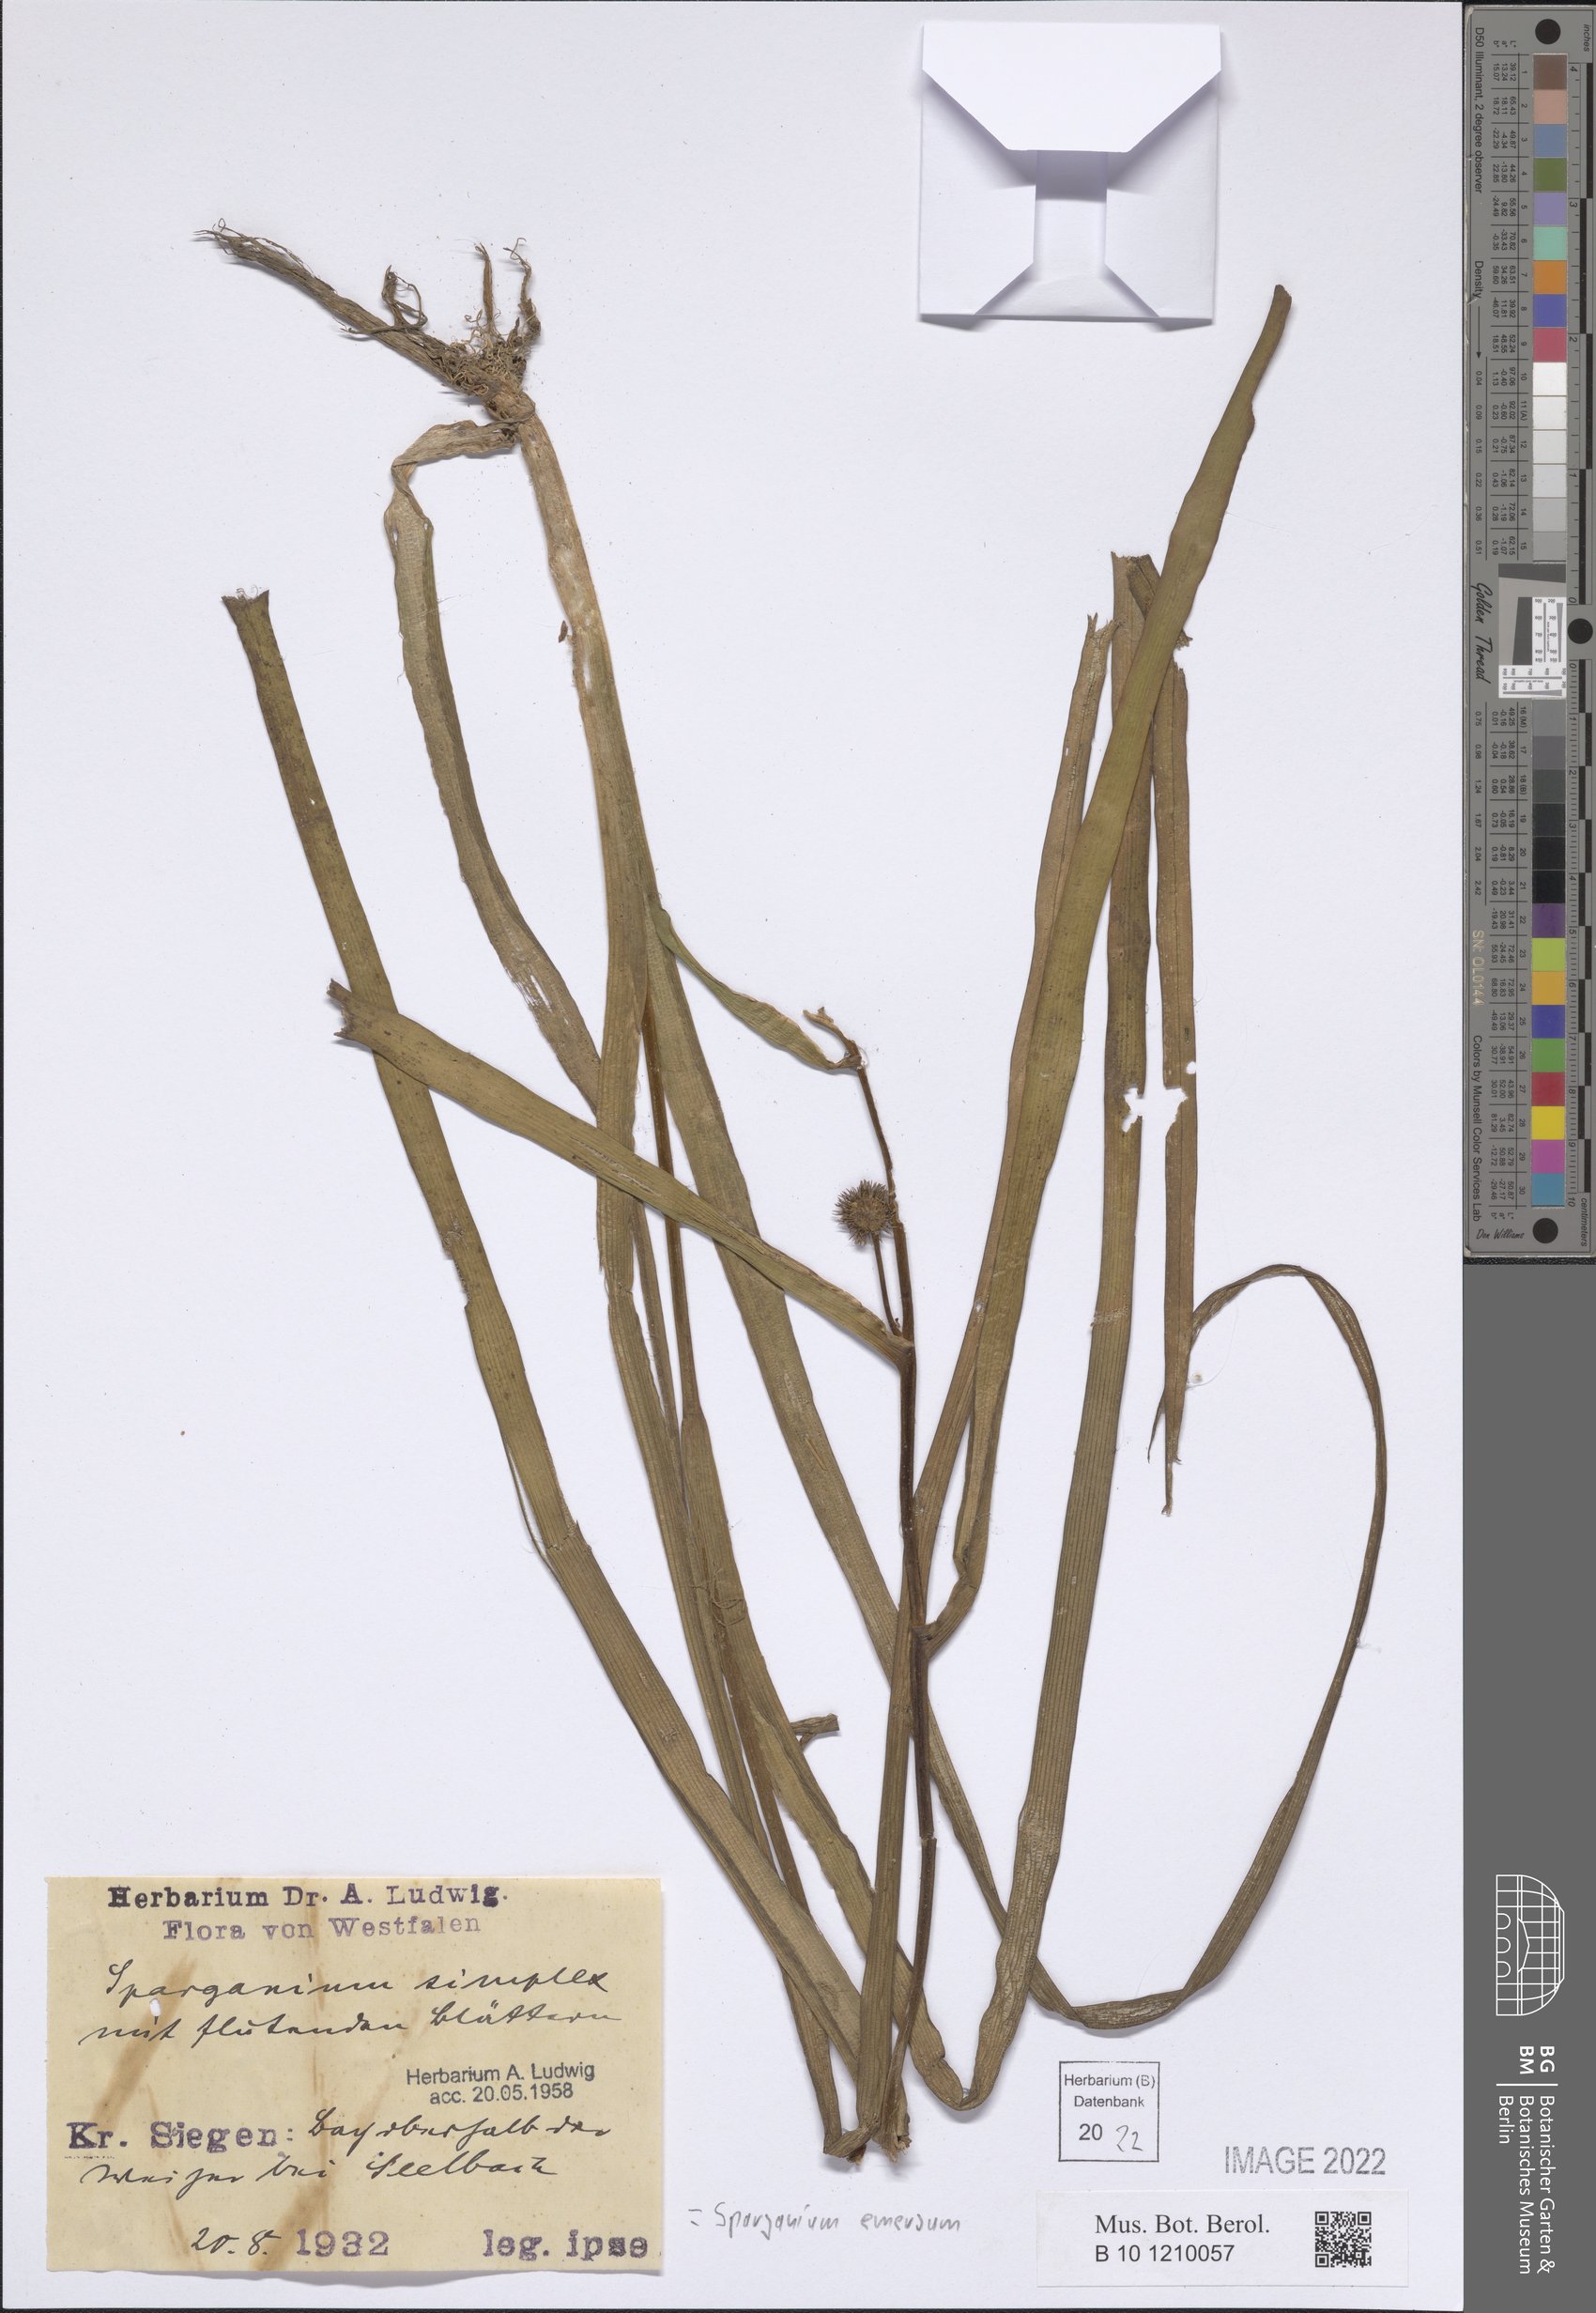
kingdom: Plantae
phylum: Tracheophyta
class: Liliopsida
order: Poales
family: Typhaceae
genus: Sparganium
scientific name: Sparganium emersum
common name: Unbranched bur-reed
